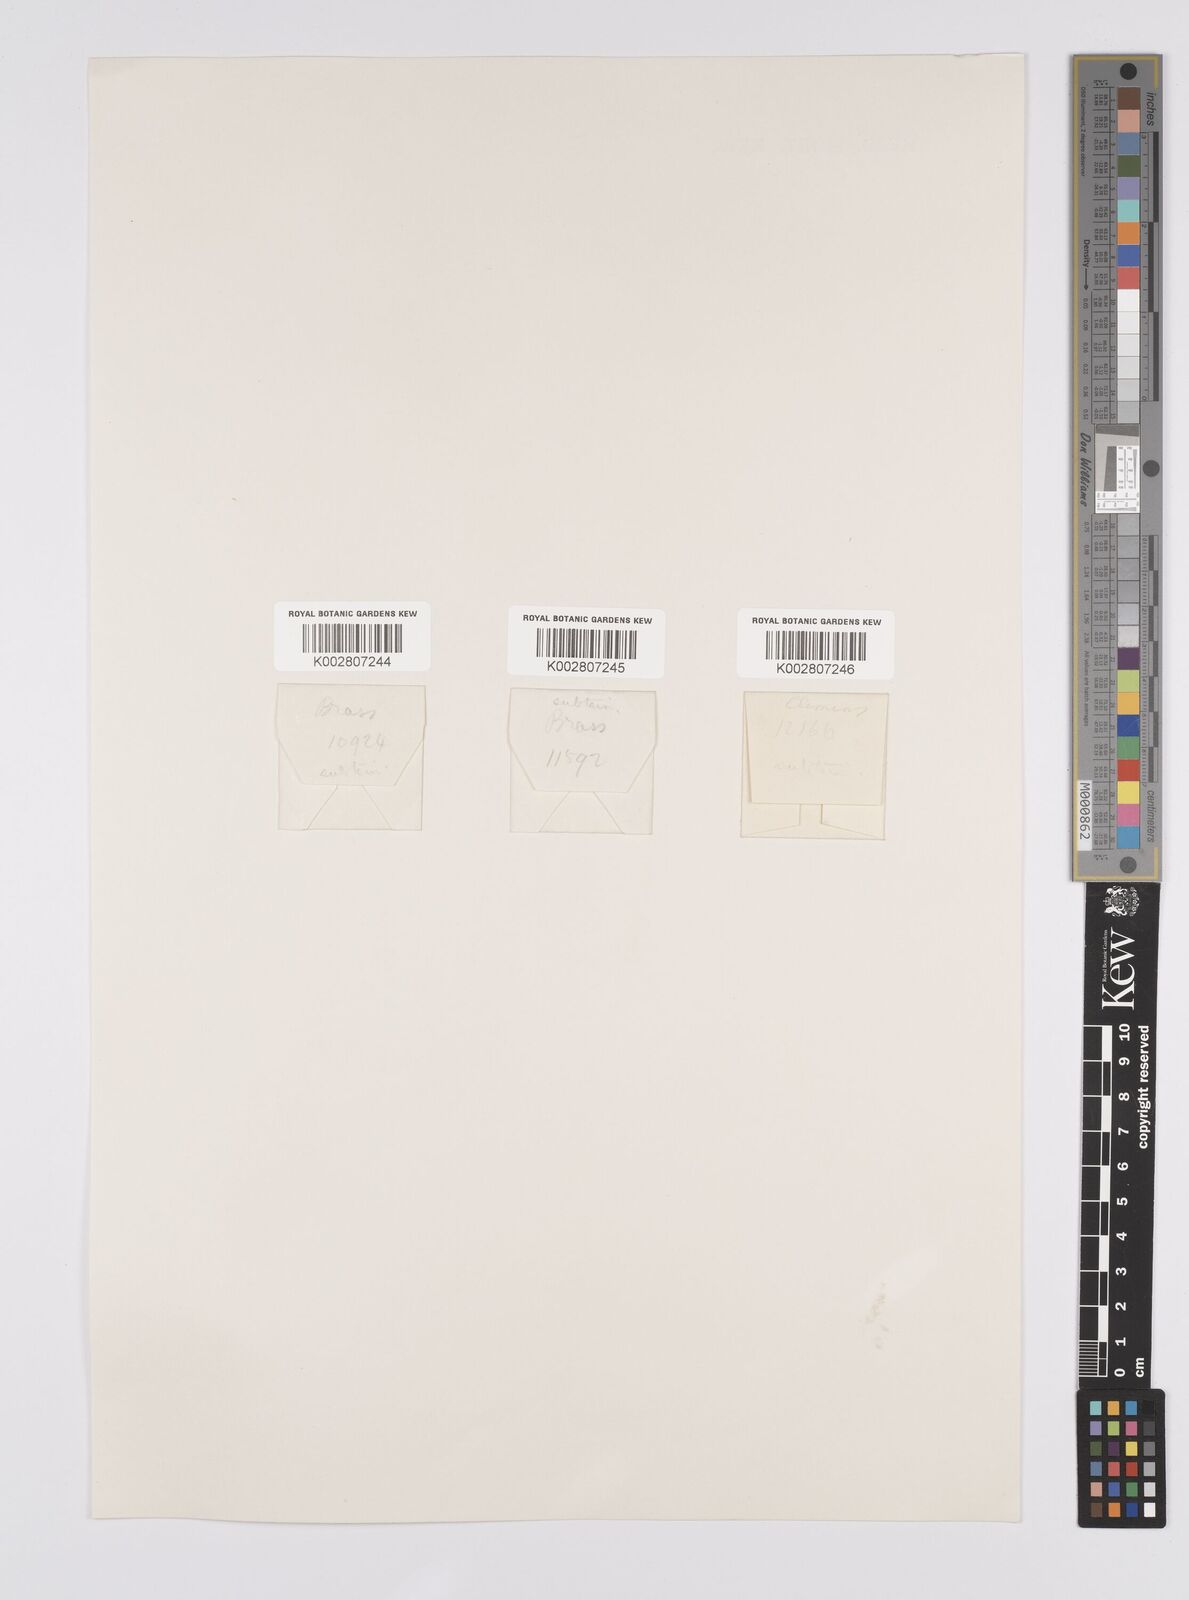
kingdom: Plantae
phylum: Tracheophyta
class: Liliopsida
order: Poales
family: Cyperaceae
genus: Carex
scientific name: Carex brunnea
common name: Greater brown sedge
